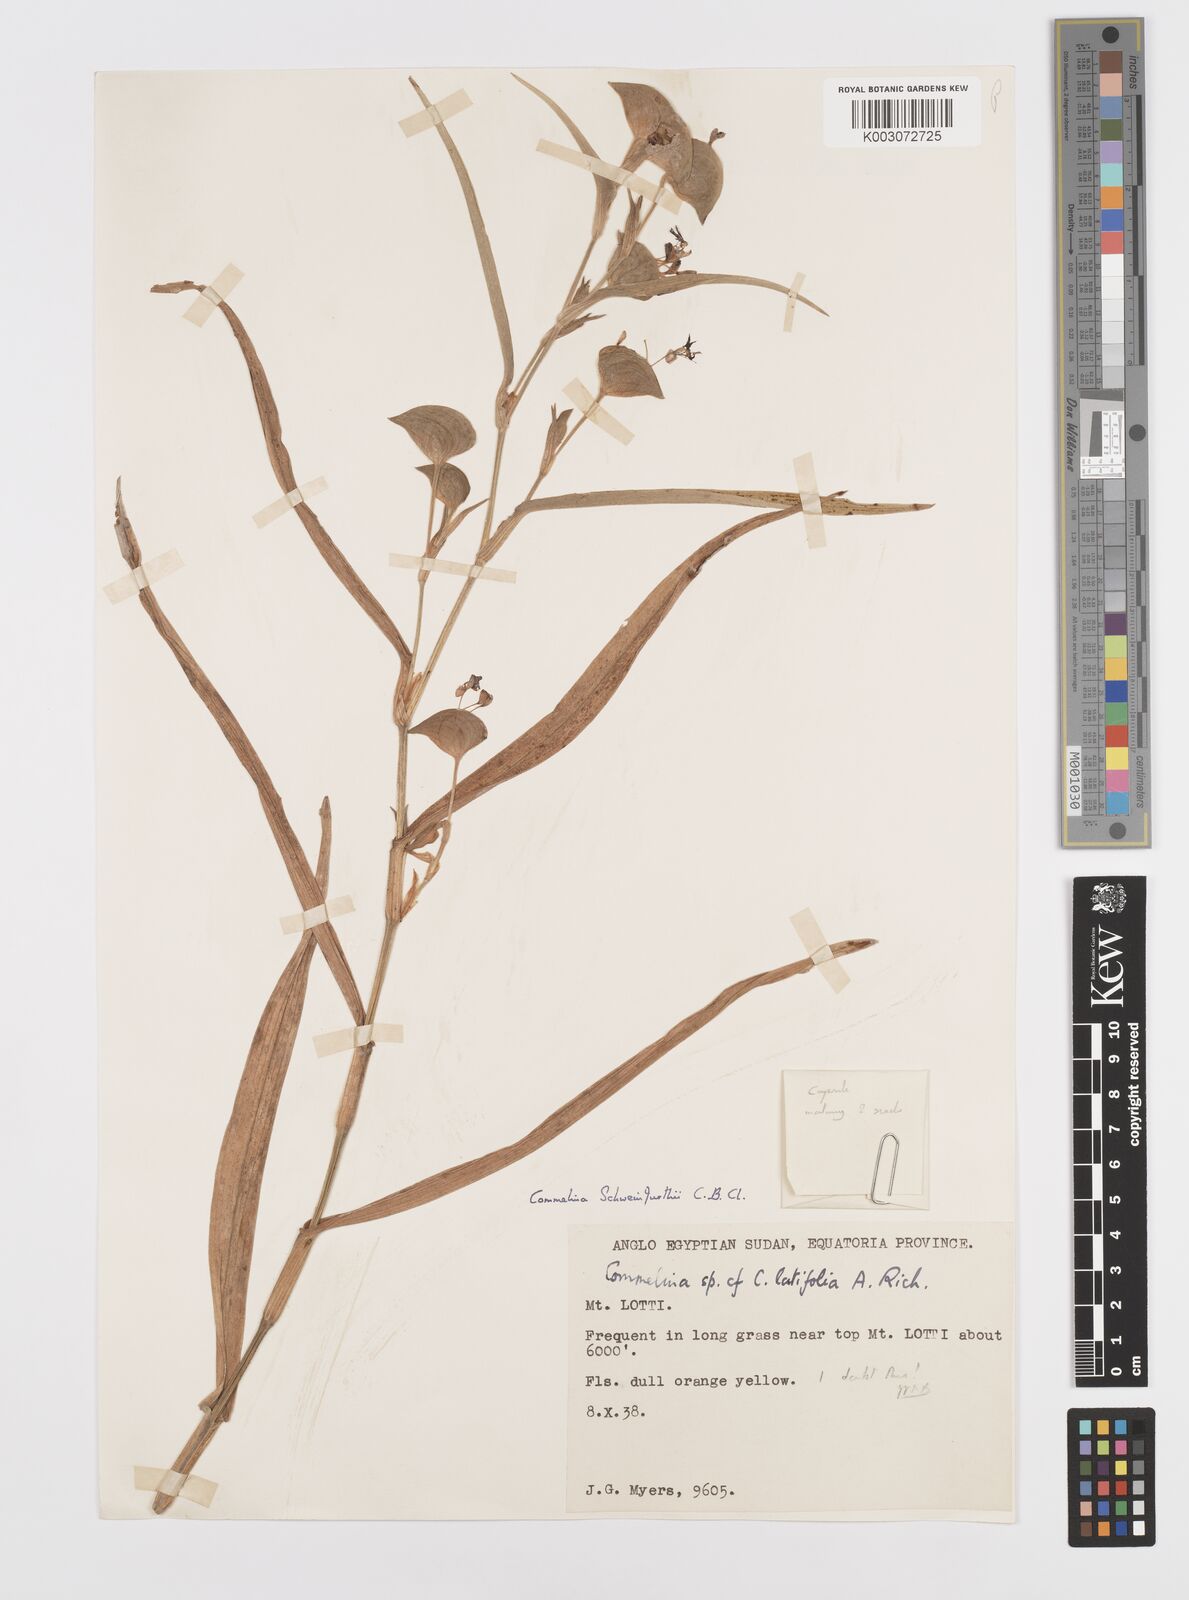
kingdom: Plantae
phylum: Tracheophyta
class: Liliopsida
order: Commelinales
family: Commelinaceae
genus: Commelina
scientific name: Commelina schweinfurthii
